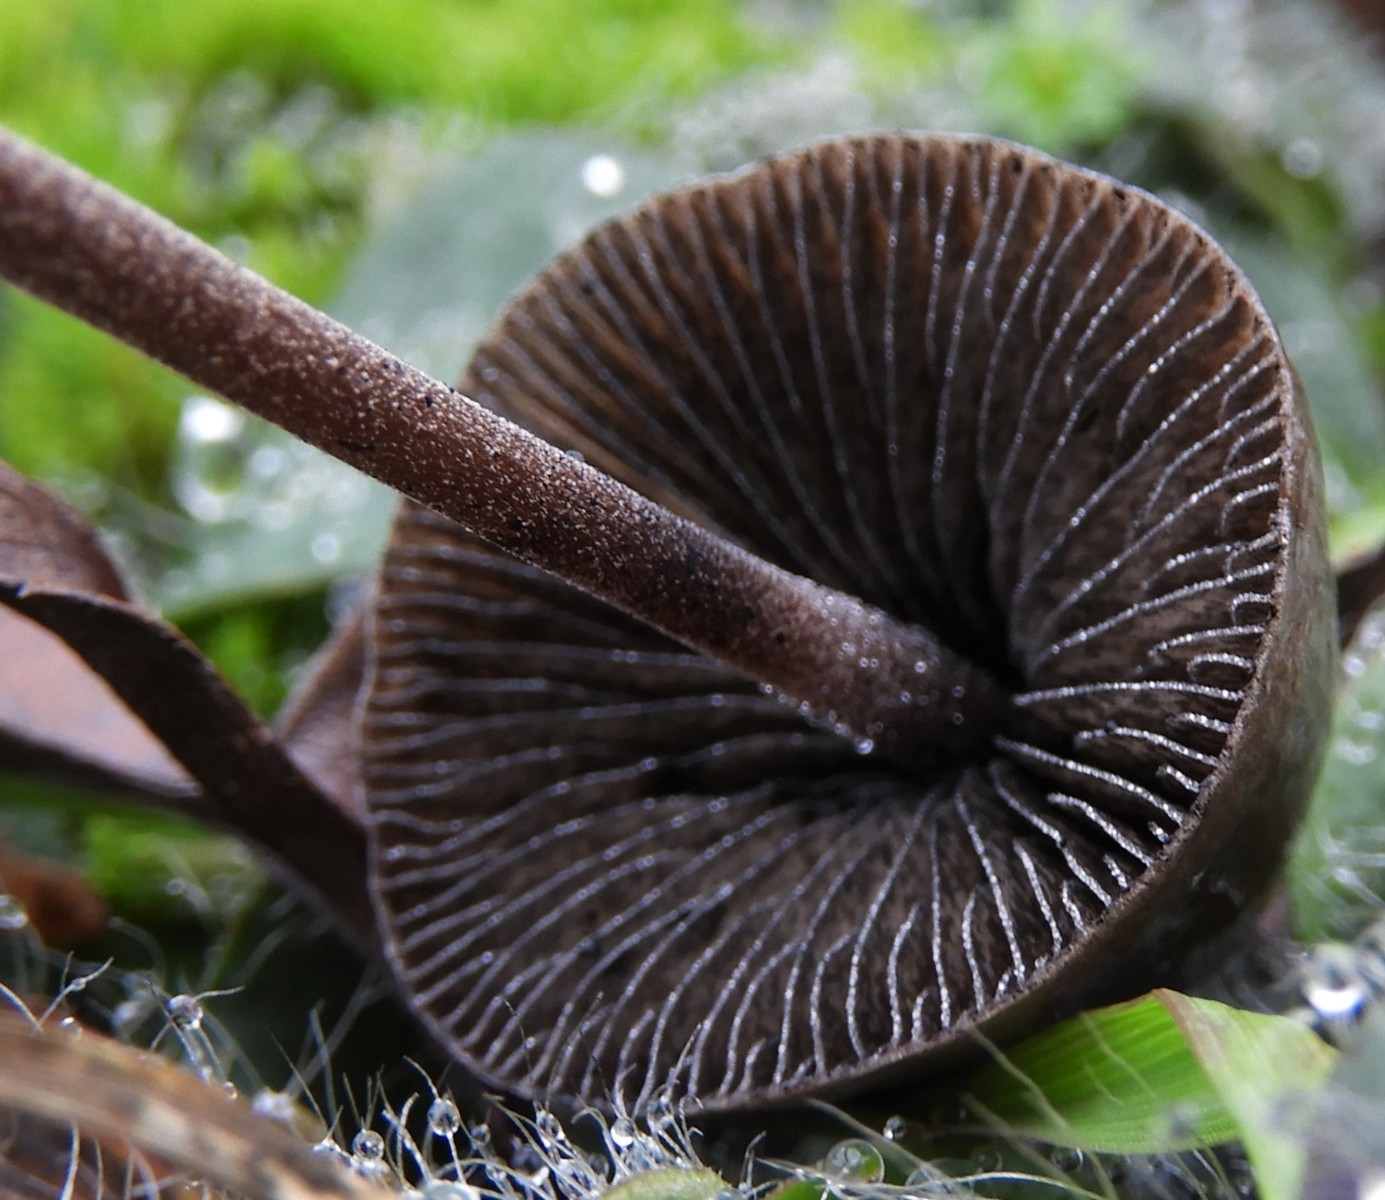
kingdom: Fungi
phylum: Basidiomycota
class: Agaricomycetes
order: Agaricales
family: Bolbitiaceae
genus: Panaeolus
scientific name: Panaeolus acuminatus
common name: høj glanshat
